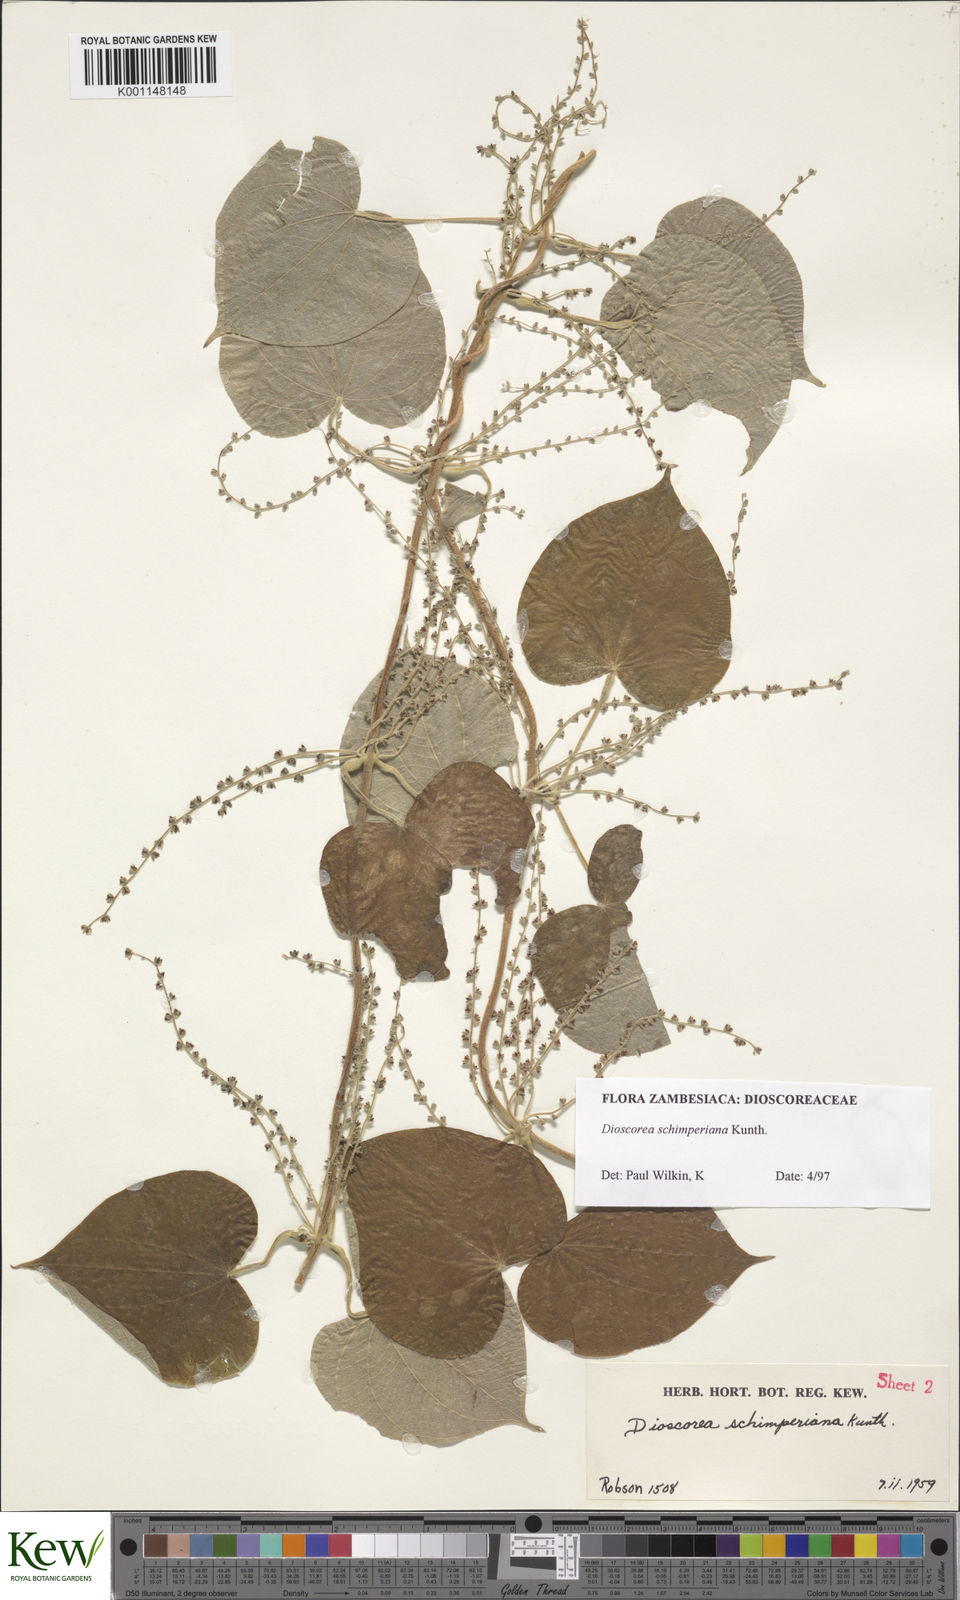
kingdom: Plantae
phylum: Tracheophyta
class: Liliopsida
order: Dioscoreales
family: Dioscoreaceae
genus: Dioscorea
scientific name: Dioscorea schimperiana
